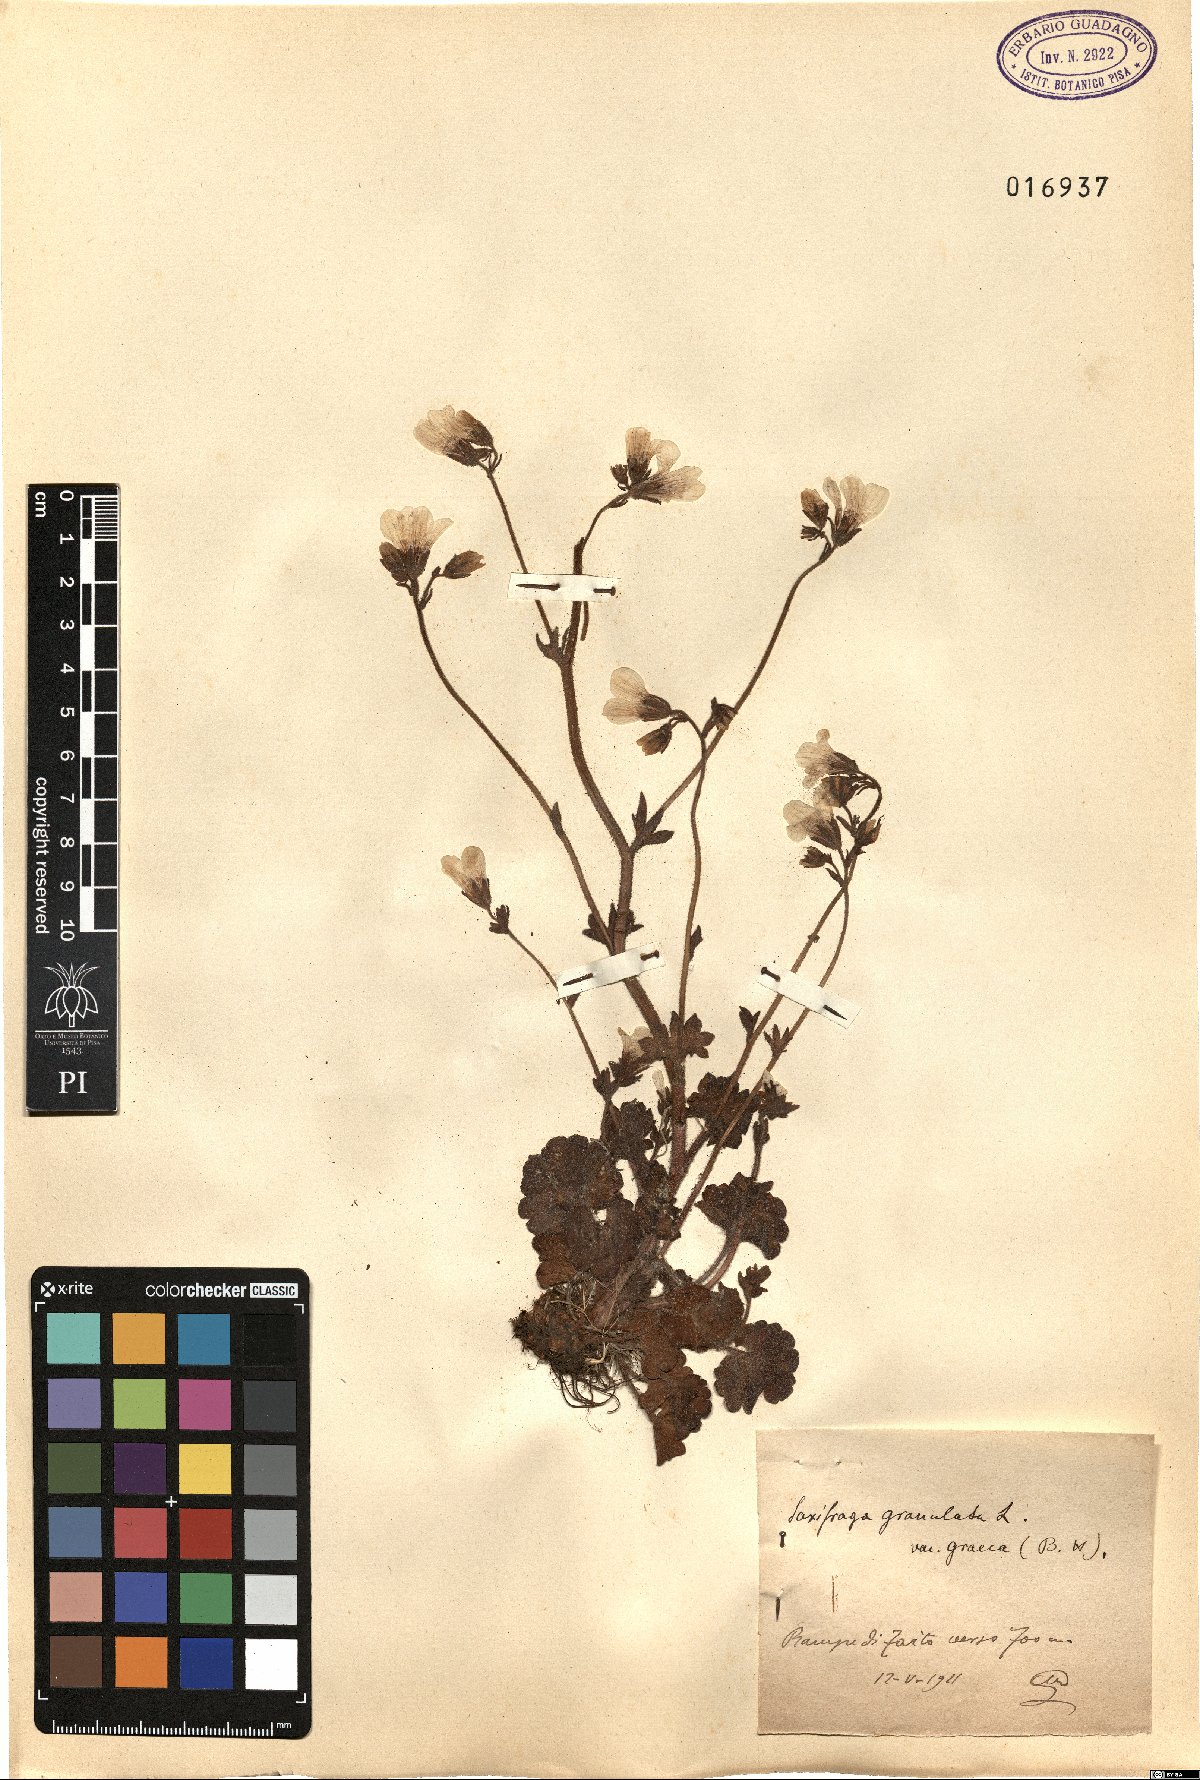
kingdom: Plantae
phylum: Tracheophyta
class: Magnoliopsida
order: Saxifragales
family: Saxifragaceae
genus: Saxifraga
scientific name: Saxifraga carpetana
